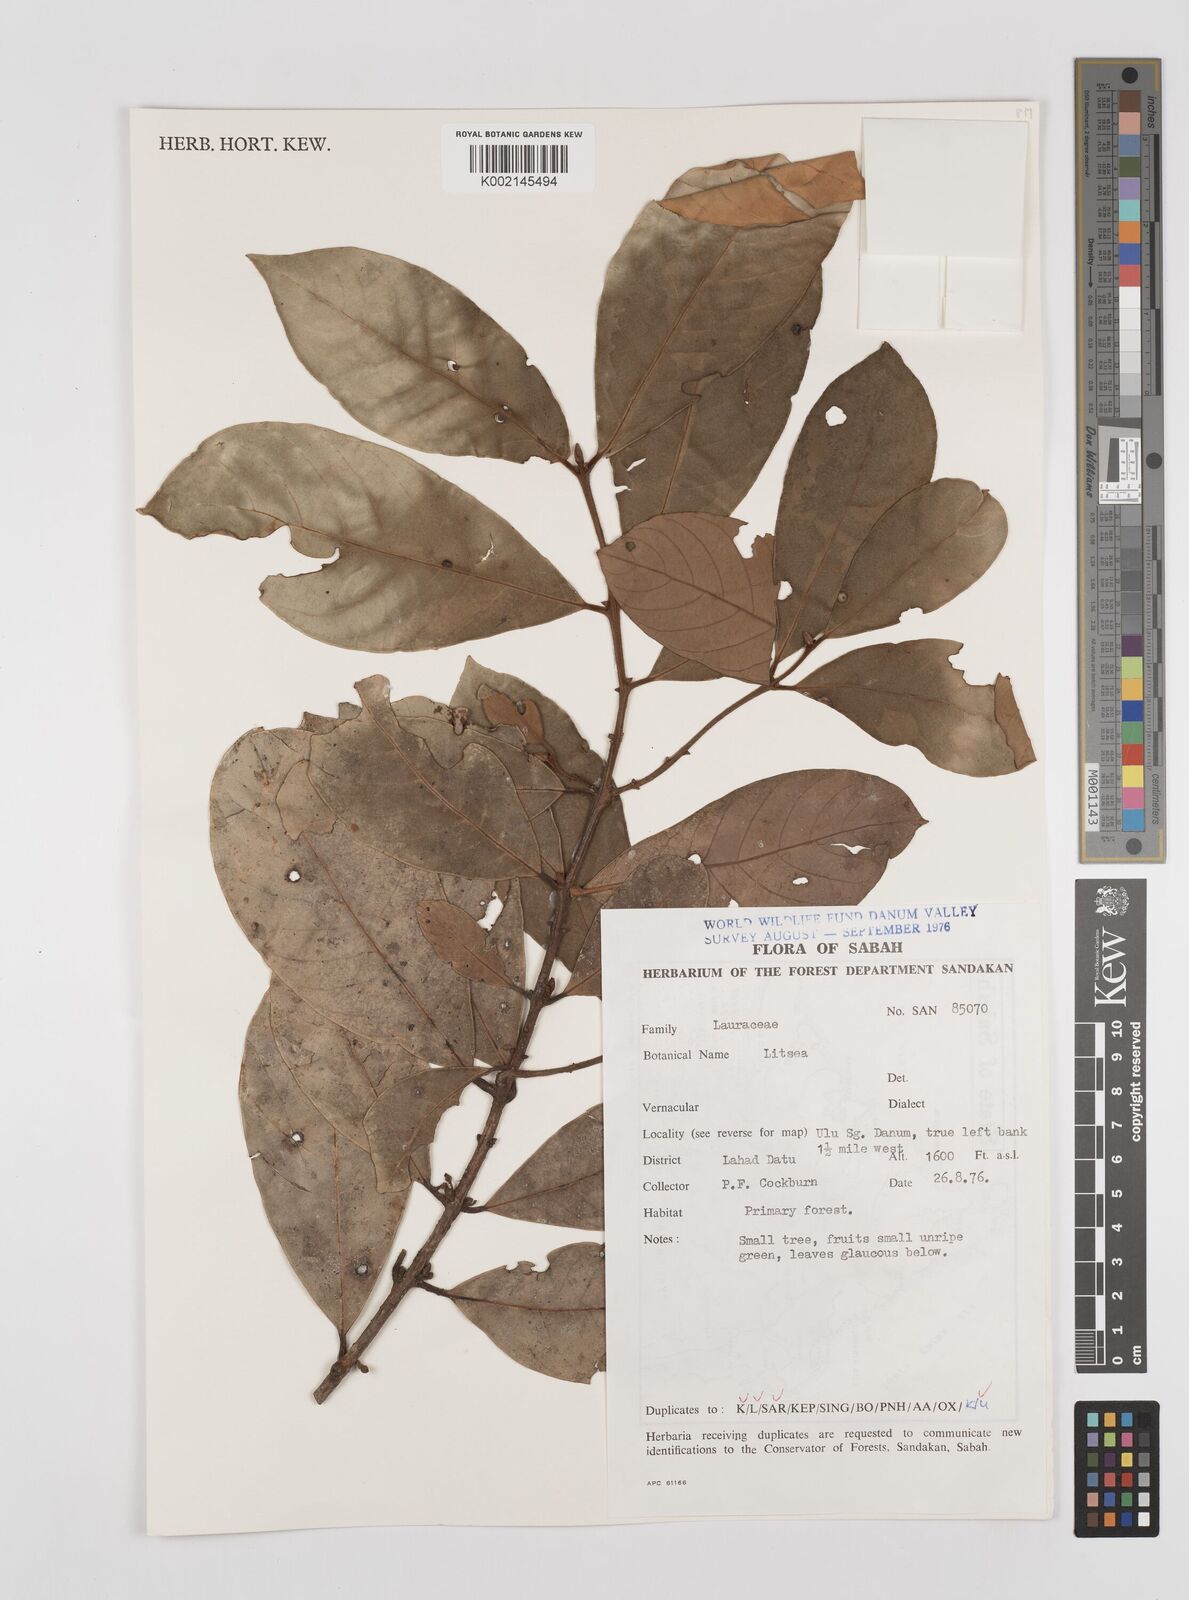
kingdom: Plantae
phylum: Tracheophyta
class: Magnoliopsida
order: Laurales
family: Lauraceae
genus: Litsea
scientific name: Litsea
